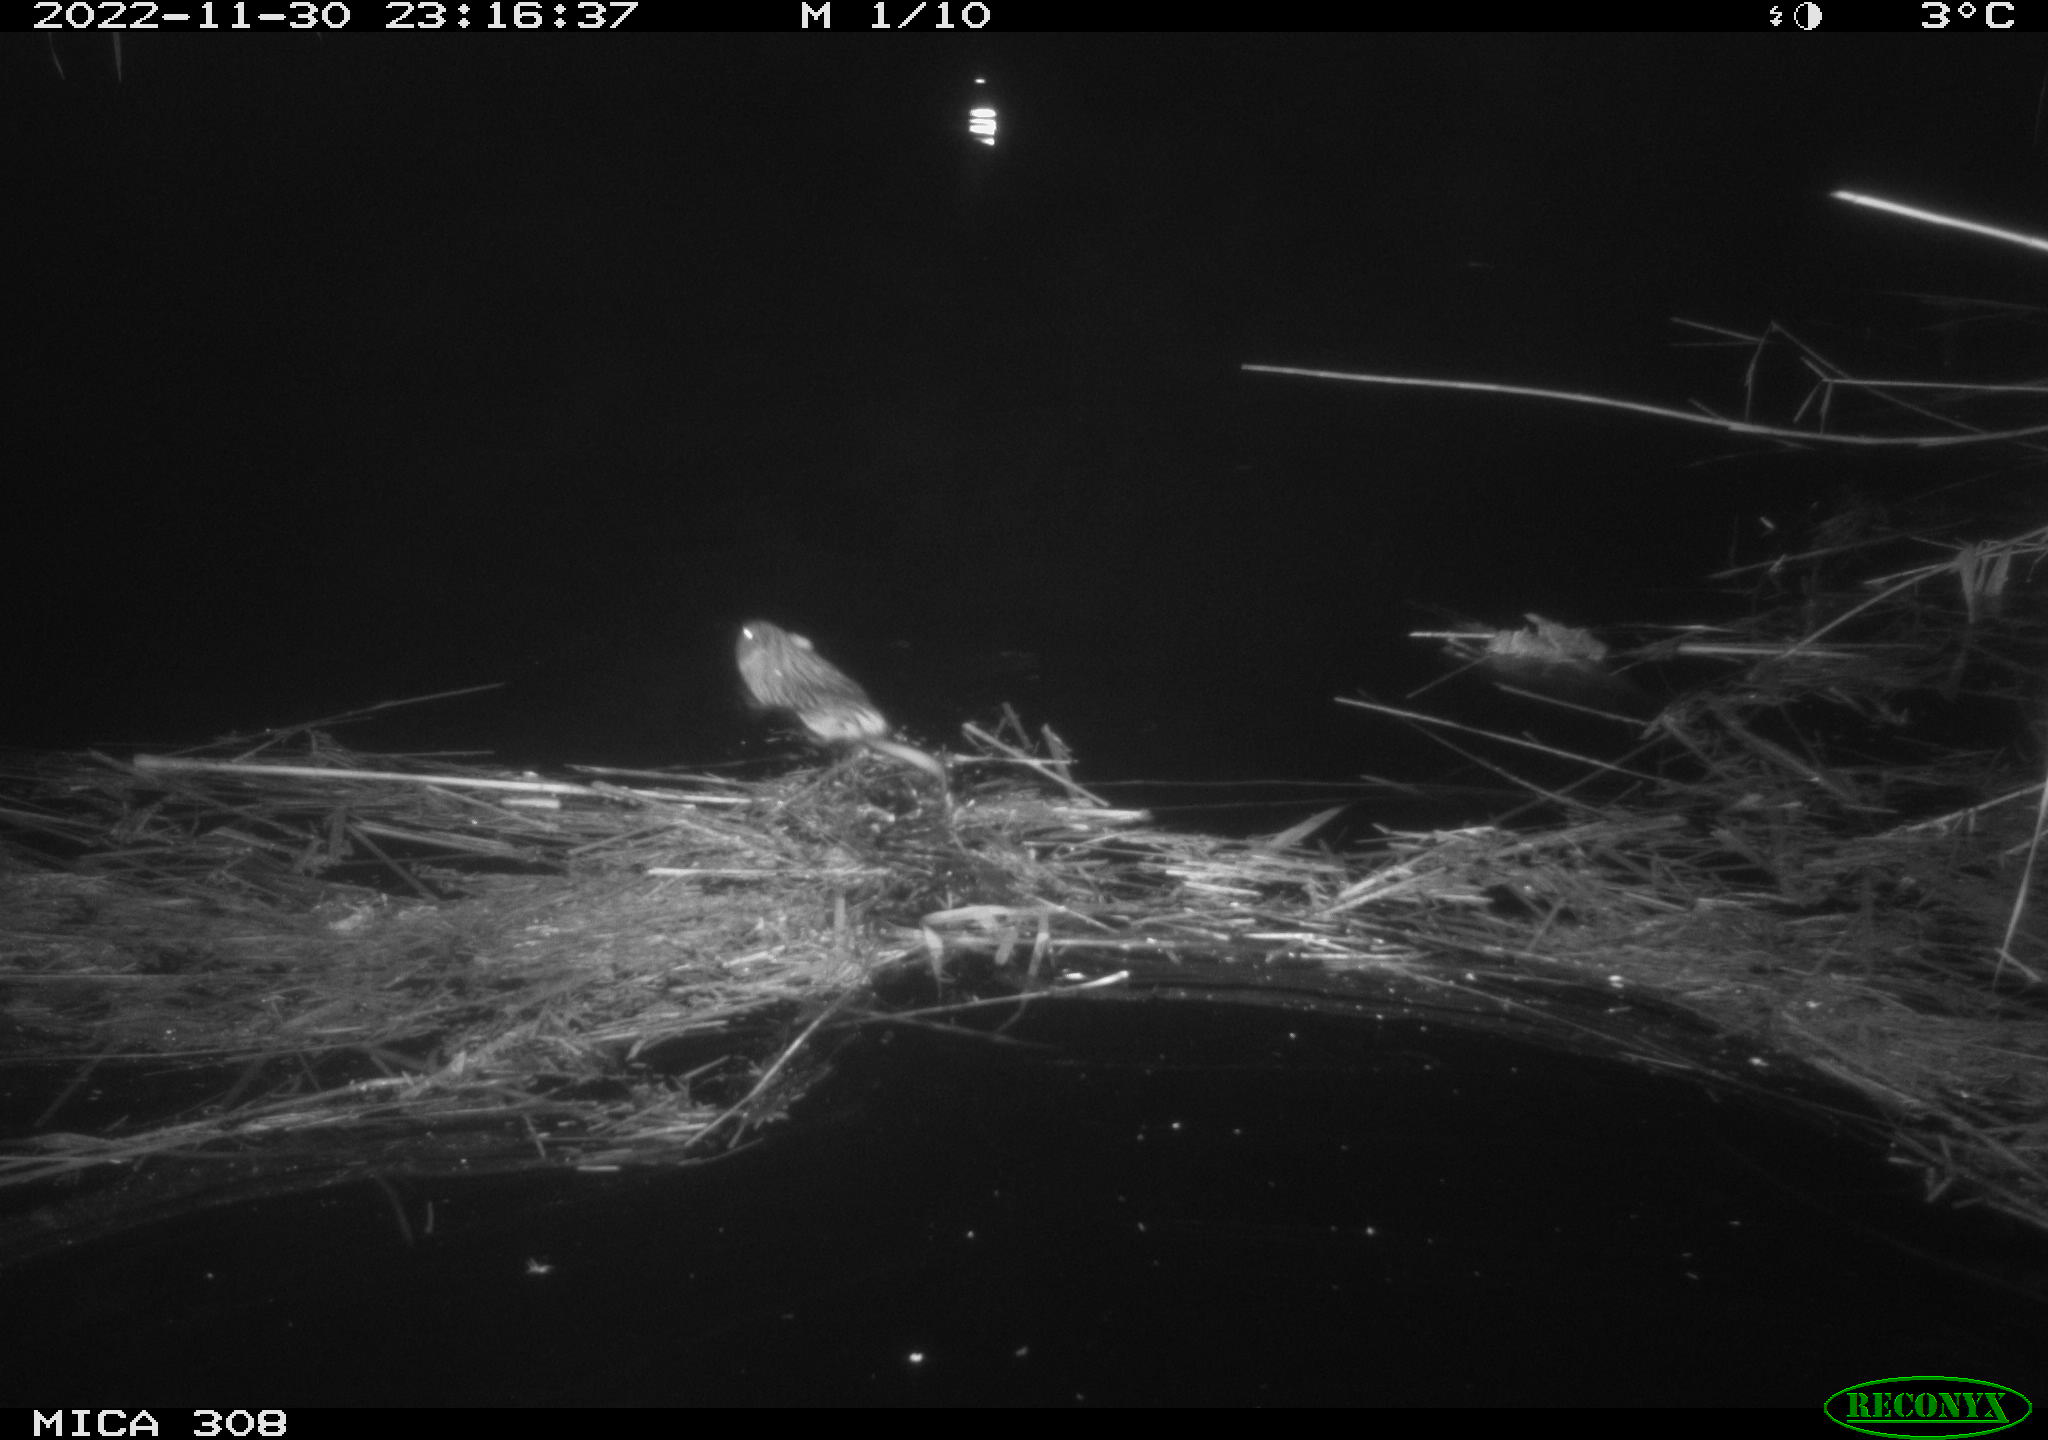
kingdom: Animalia
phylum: Chordata
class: Mammalia
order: Rodentia
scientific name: Rodentia
